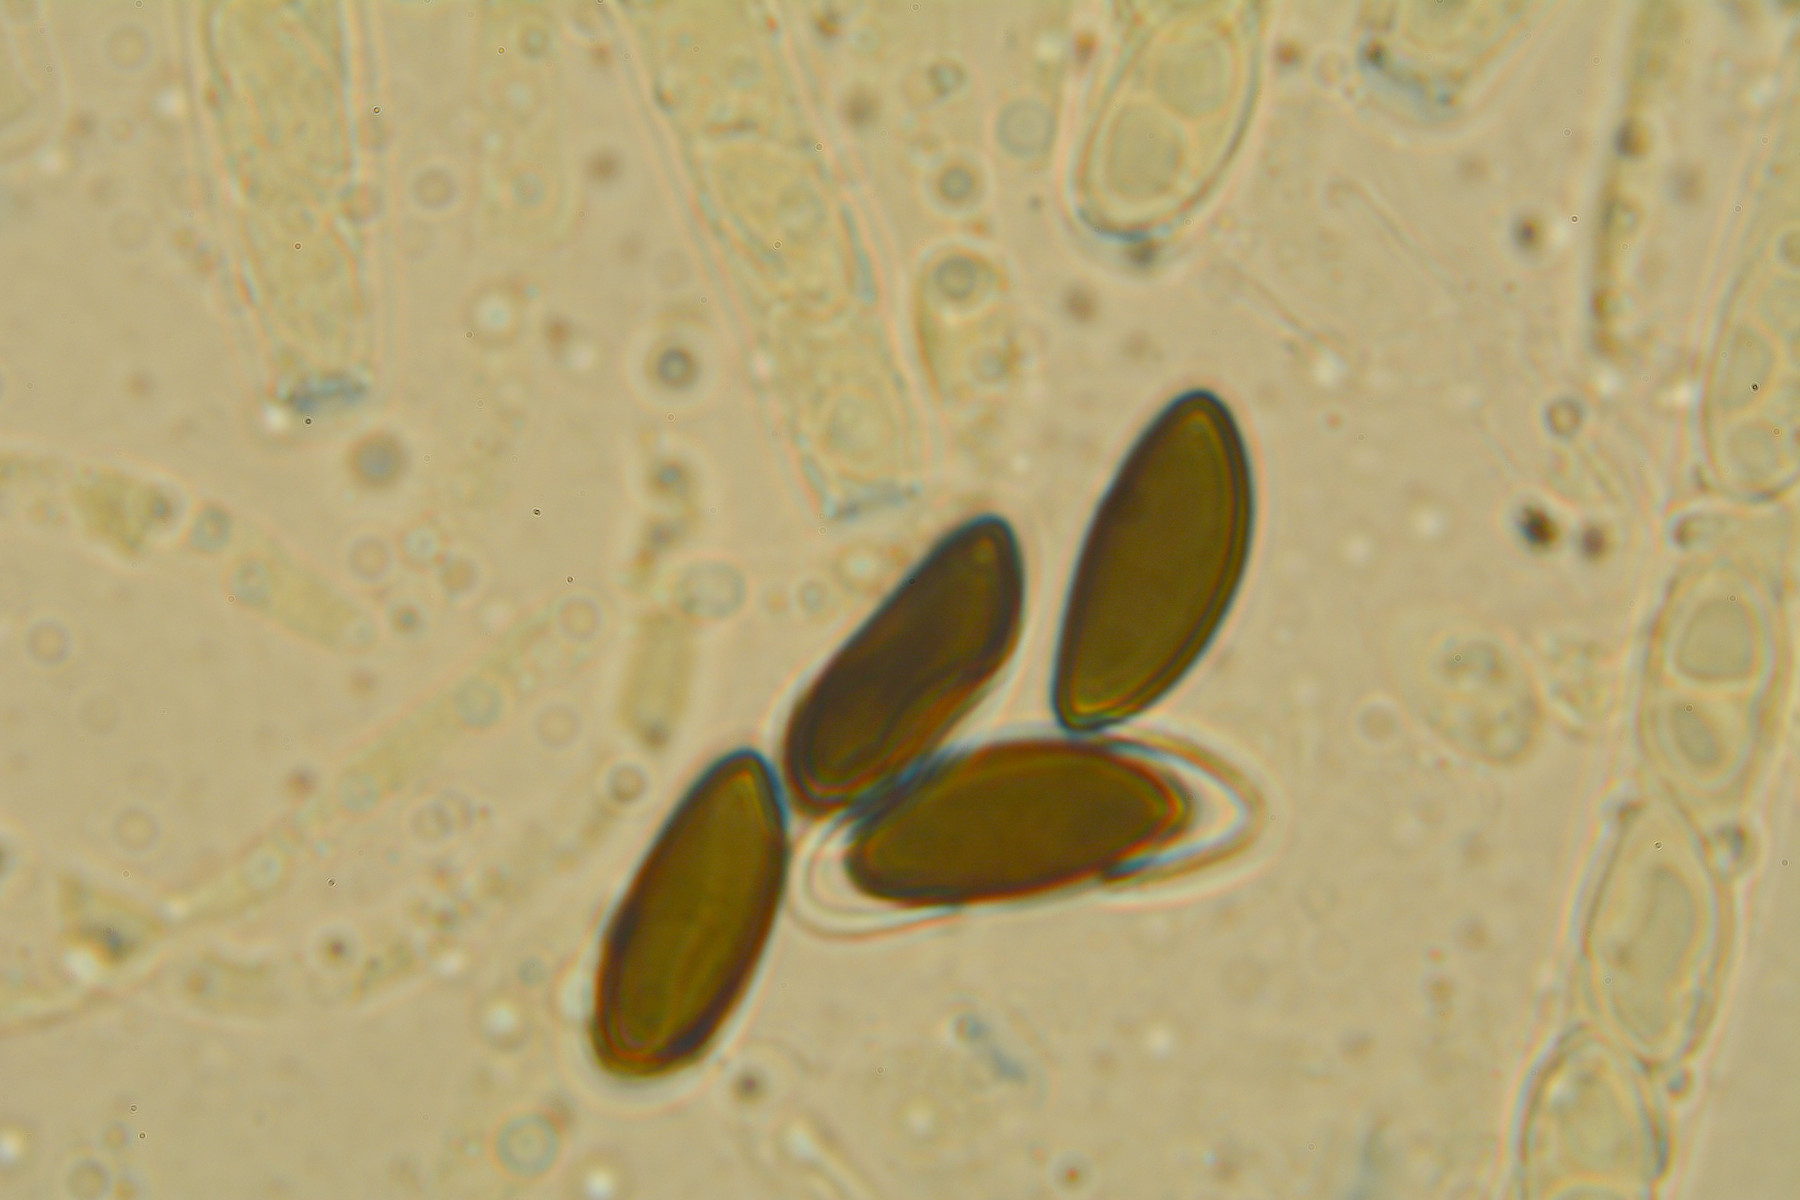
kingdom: Fungi
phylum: Ascomycota
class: Sordariomycetes
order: Xylariales
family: Hypoxylaceae
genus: Hypoxylon
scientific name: Hypoxylon fuscum
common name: kegleformet kulbær
